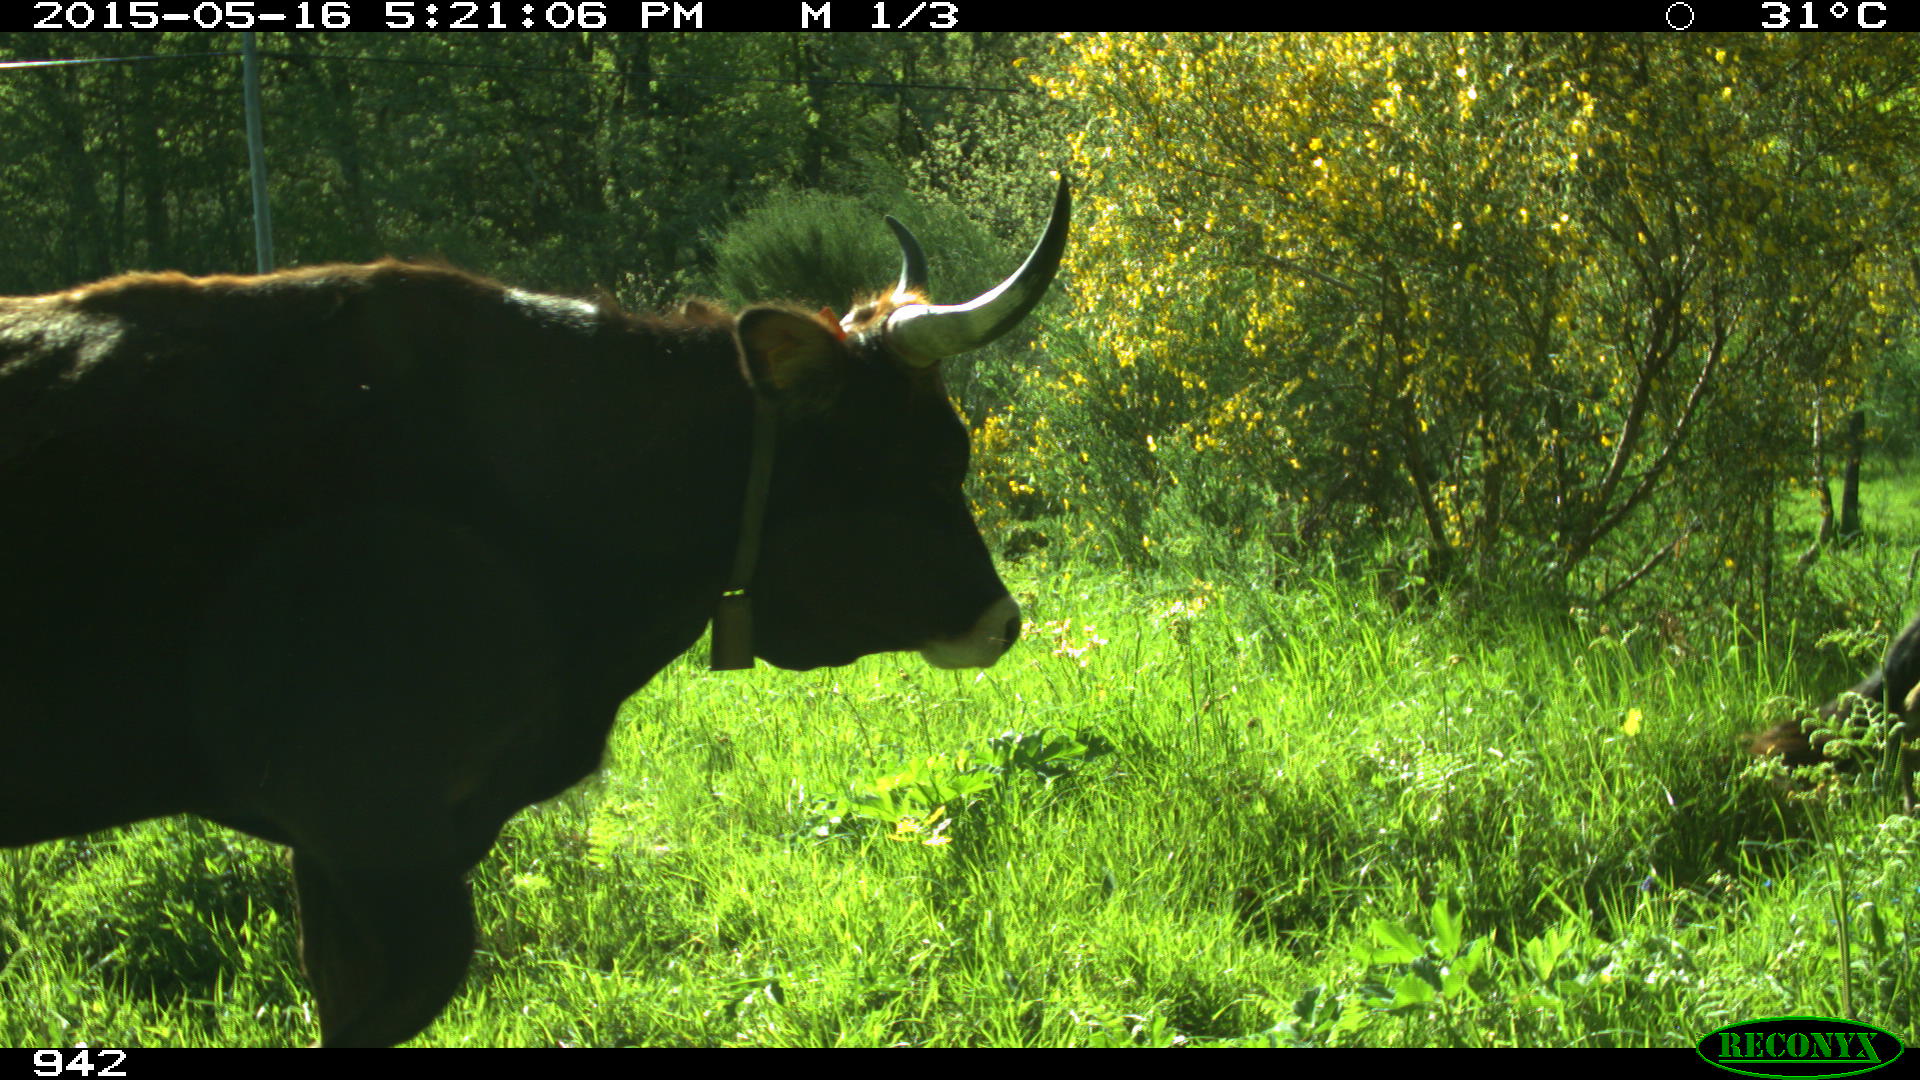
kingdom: Animalia
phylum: Chordata
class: Mammalia
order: Artiodactyla
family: Bovidae
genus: Bos
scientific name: Bos taurus
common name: Domesticated cattle
